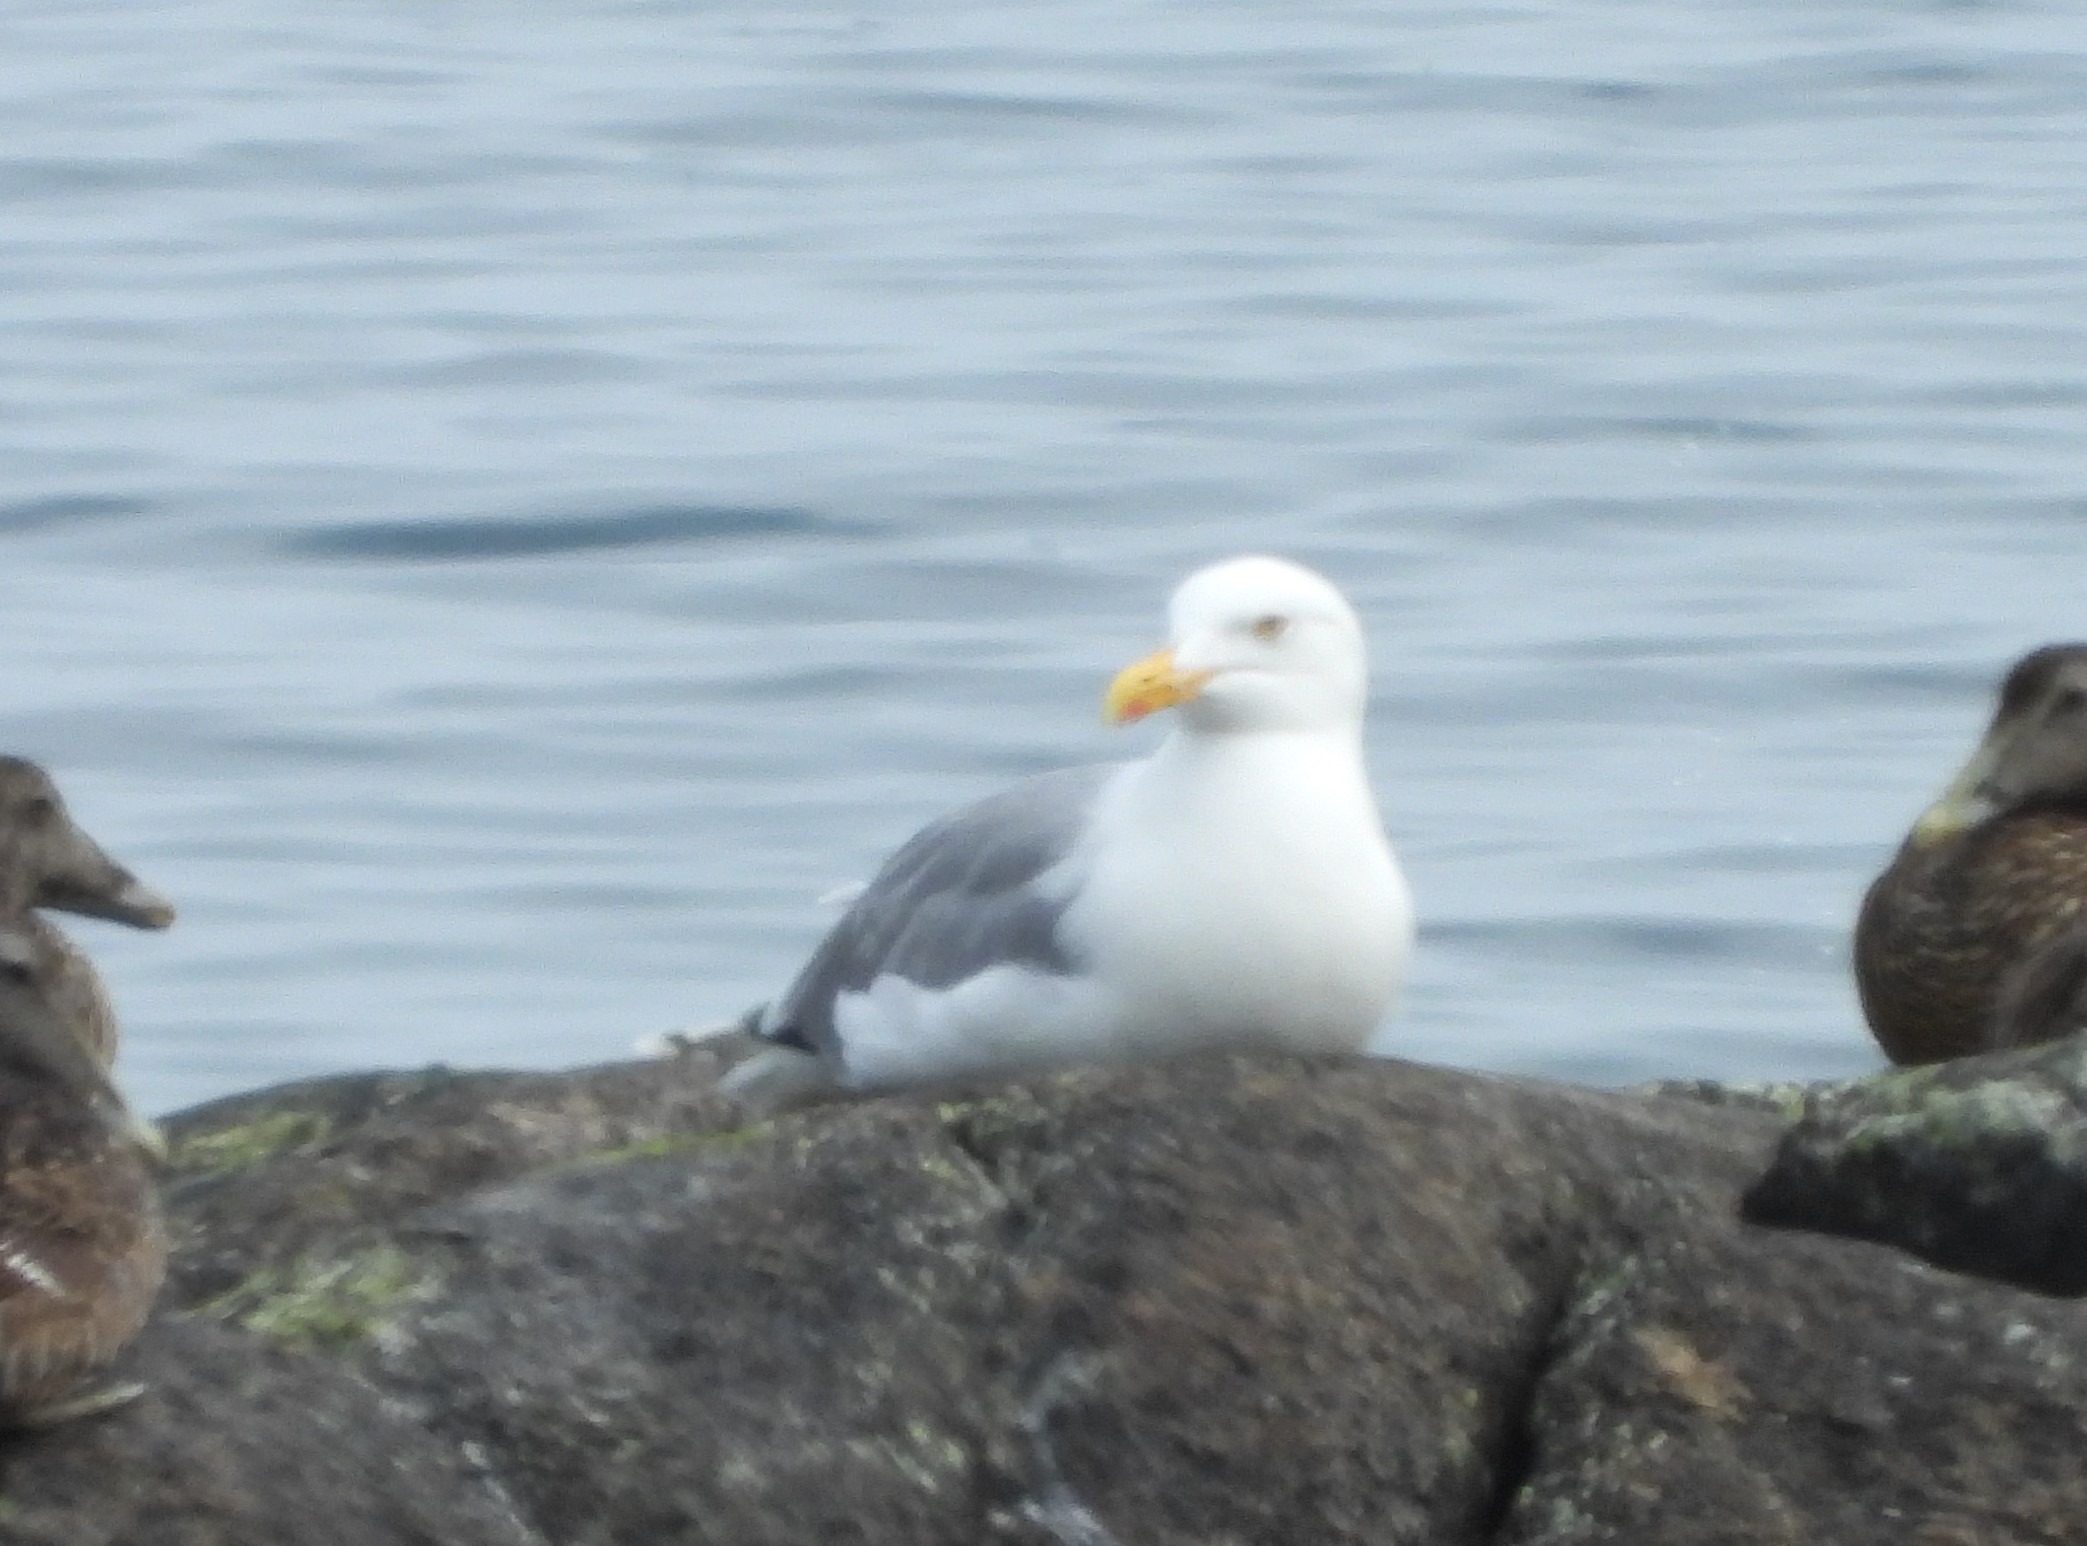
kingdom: Animalia
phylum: Chordata
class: Aves
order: Charadriiformes
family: Laridae
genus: Larus
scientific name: Larus argentatus
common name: Sølvmåge
